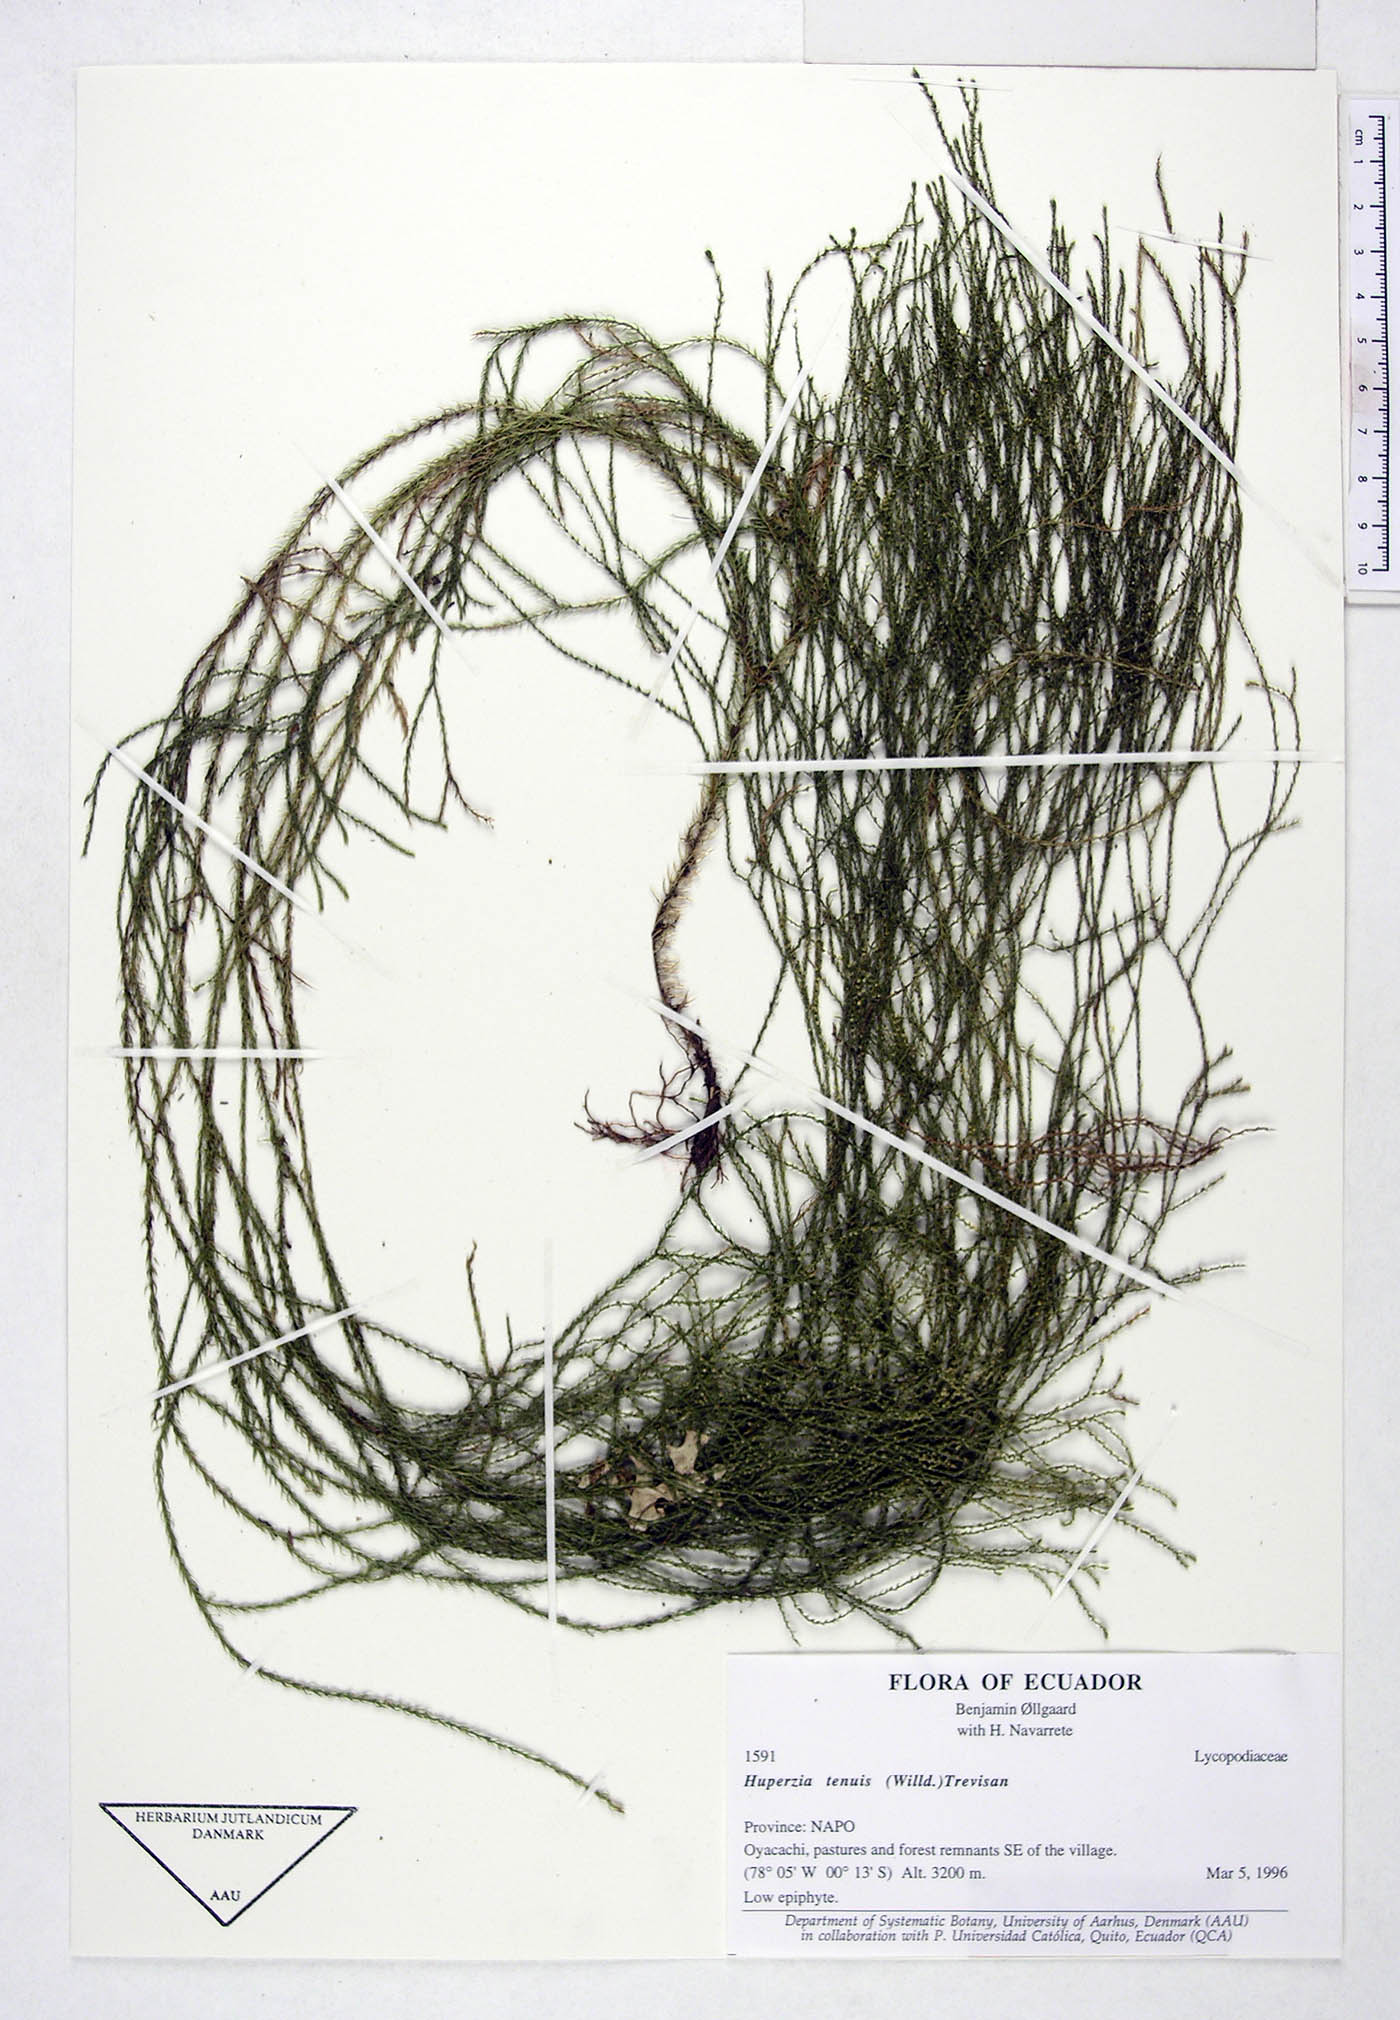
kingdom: Plantae
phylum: Tracheophyta
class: Lycopodiopsida
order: Lycopodiales
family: Lycopodiaceae
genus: Phlegmariurus
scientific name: Phlegmariurus tenuis
